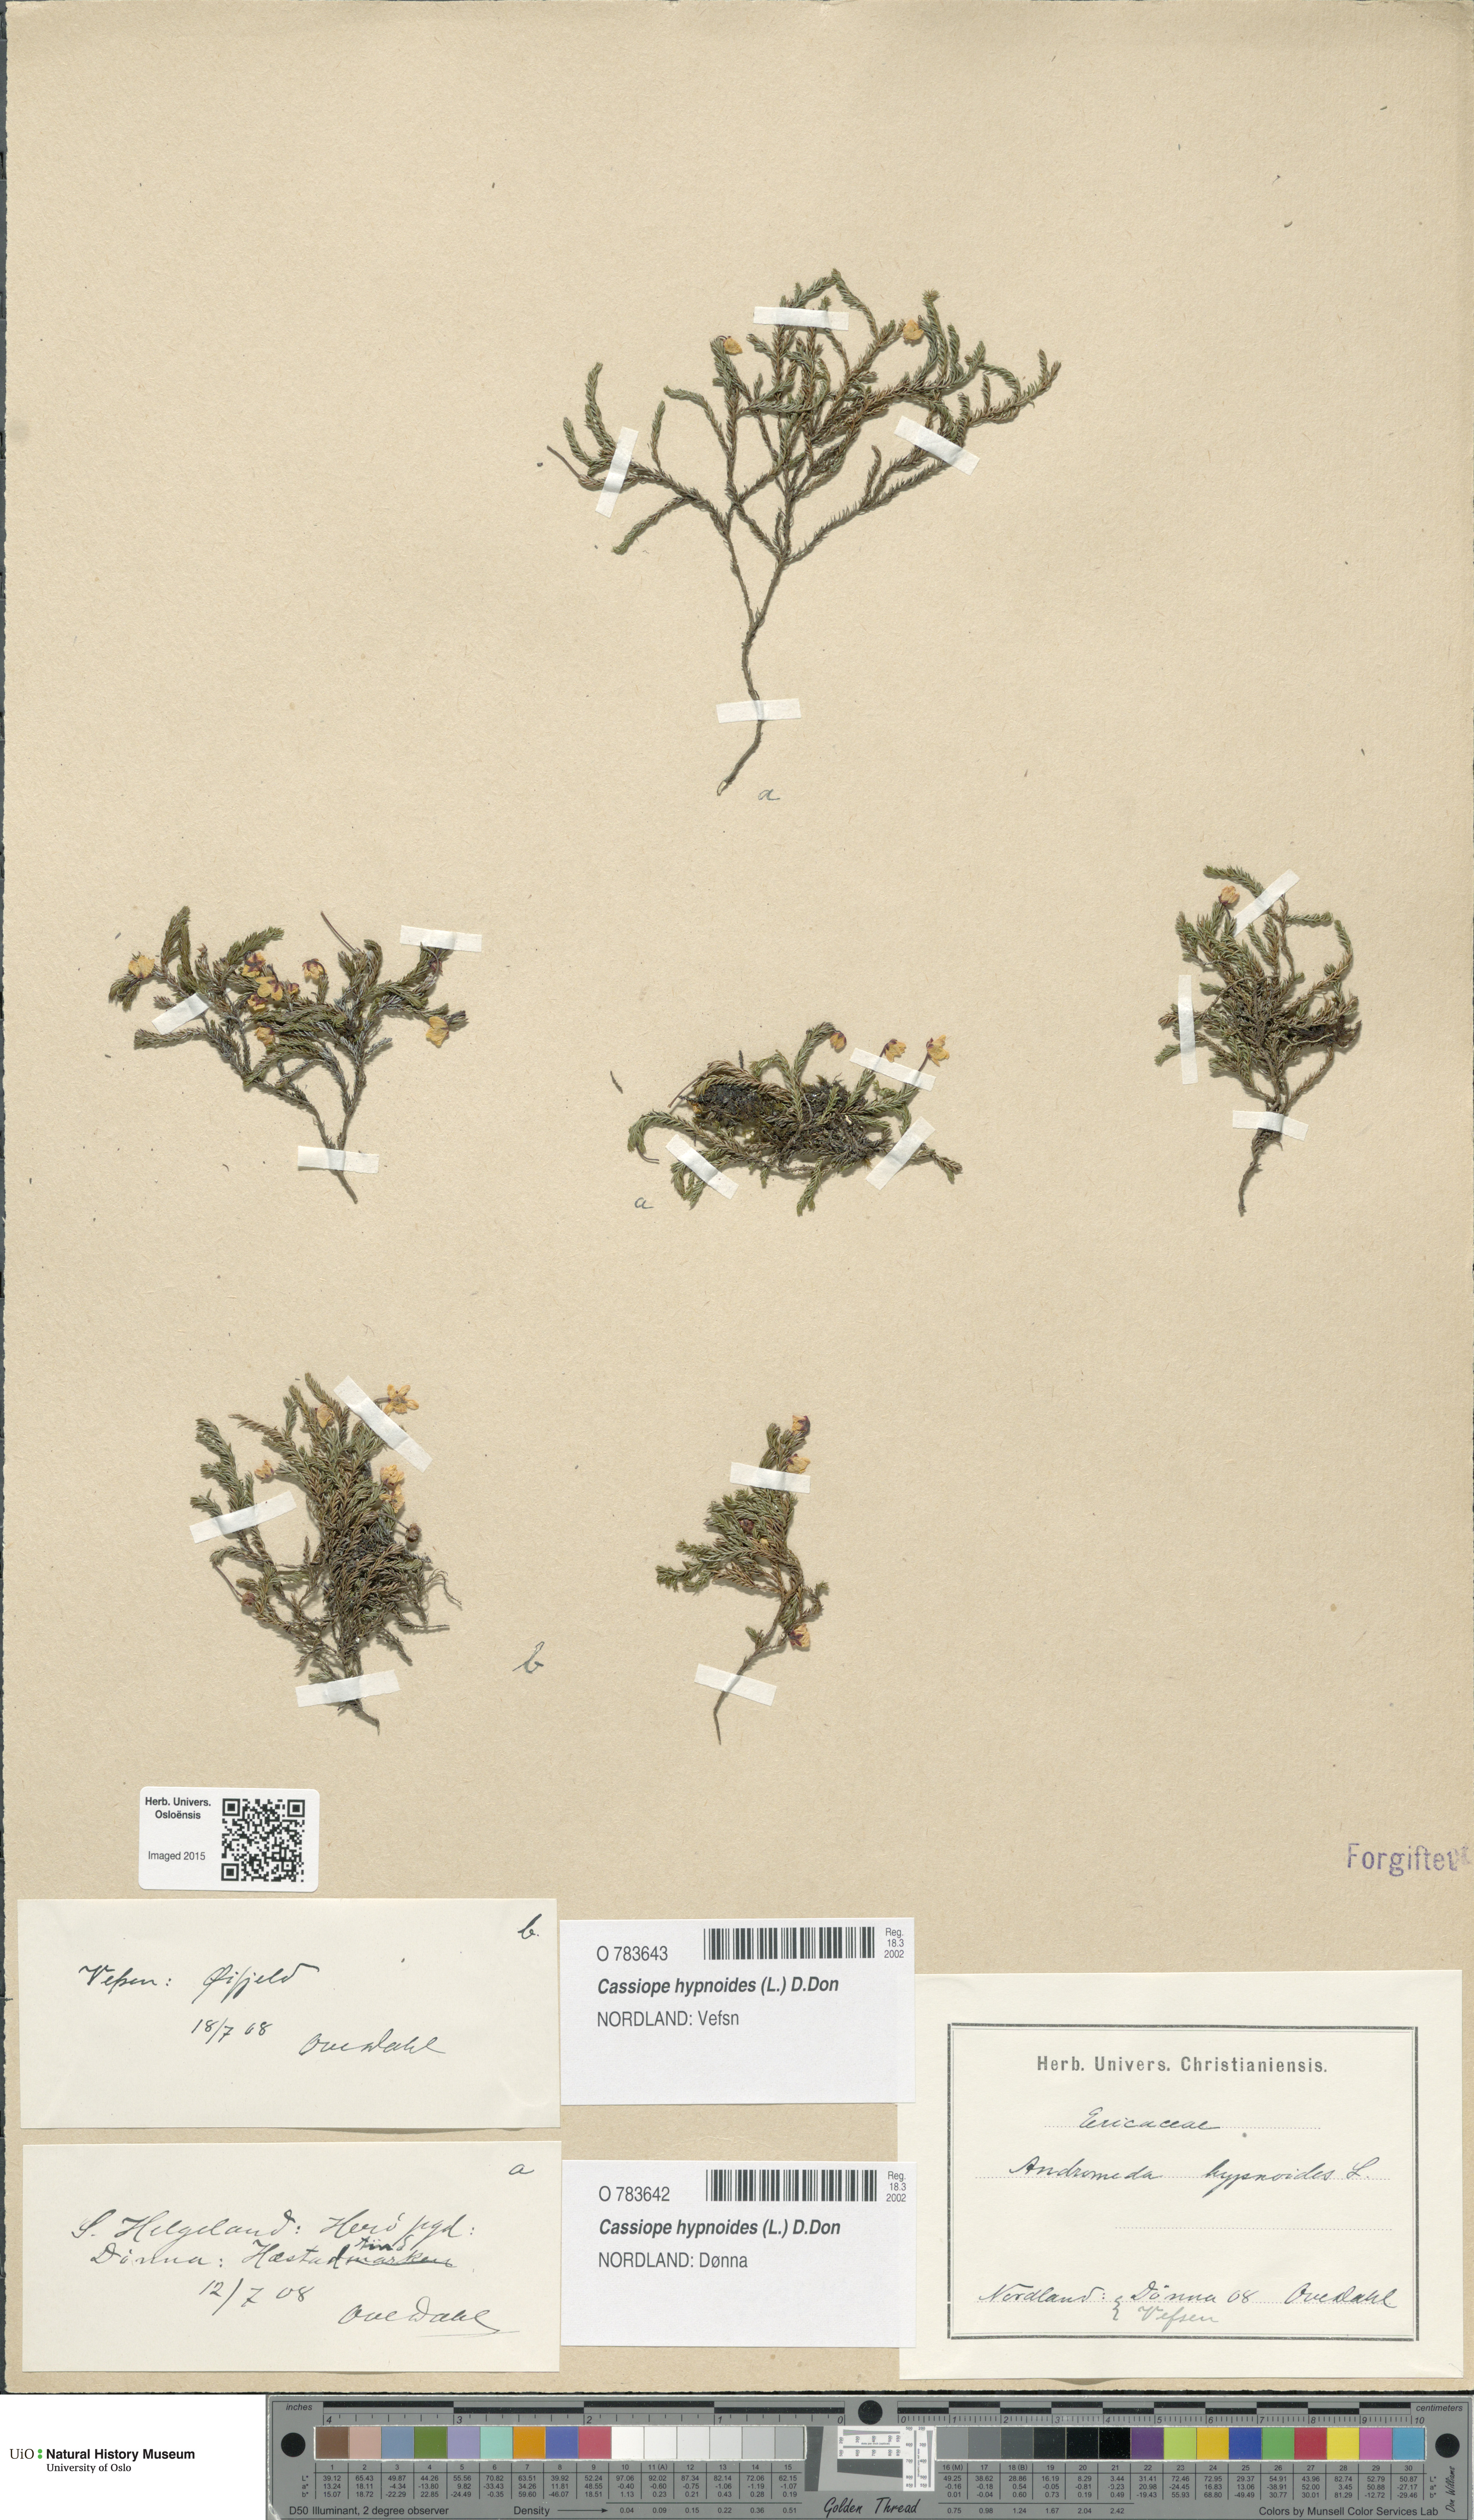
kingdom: Plantae
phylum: Tracheophyta
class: Magnoliopsida
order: Ericales
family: Ericaceae
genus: Harrimanella
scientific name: Harrimanella hypnoides
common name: Moss bell heather
